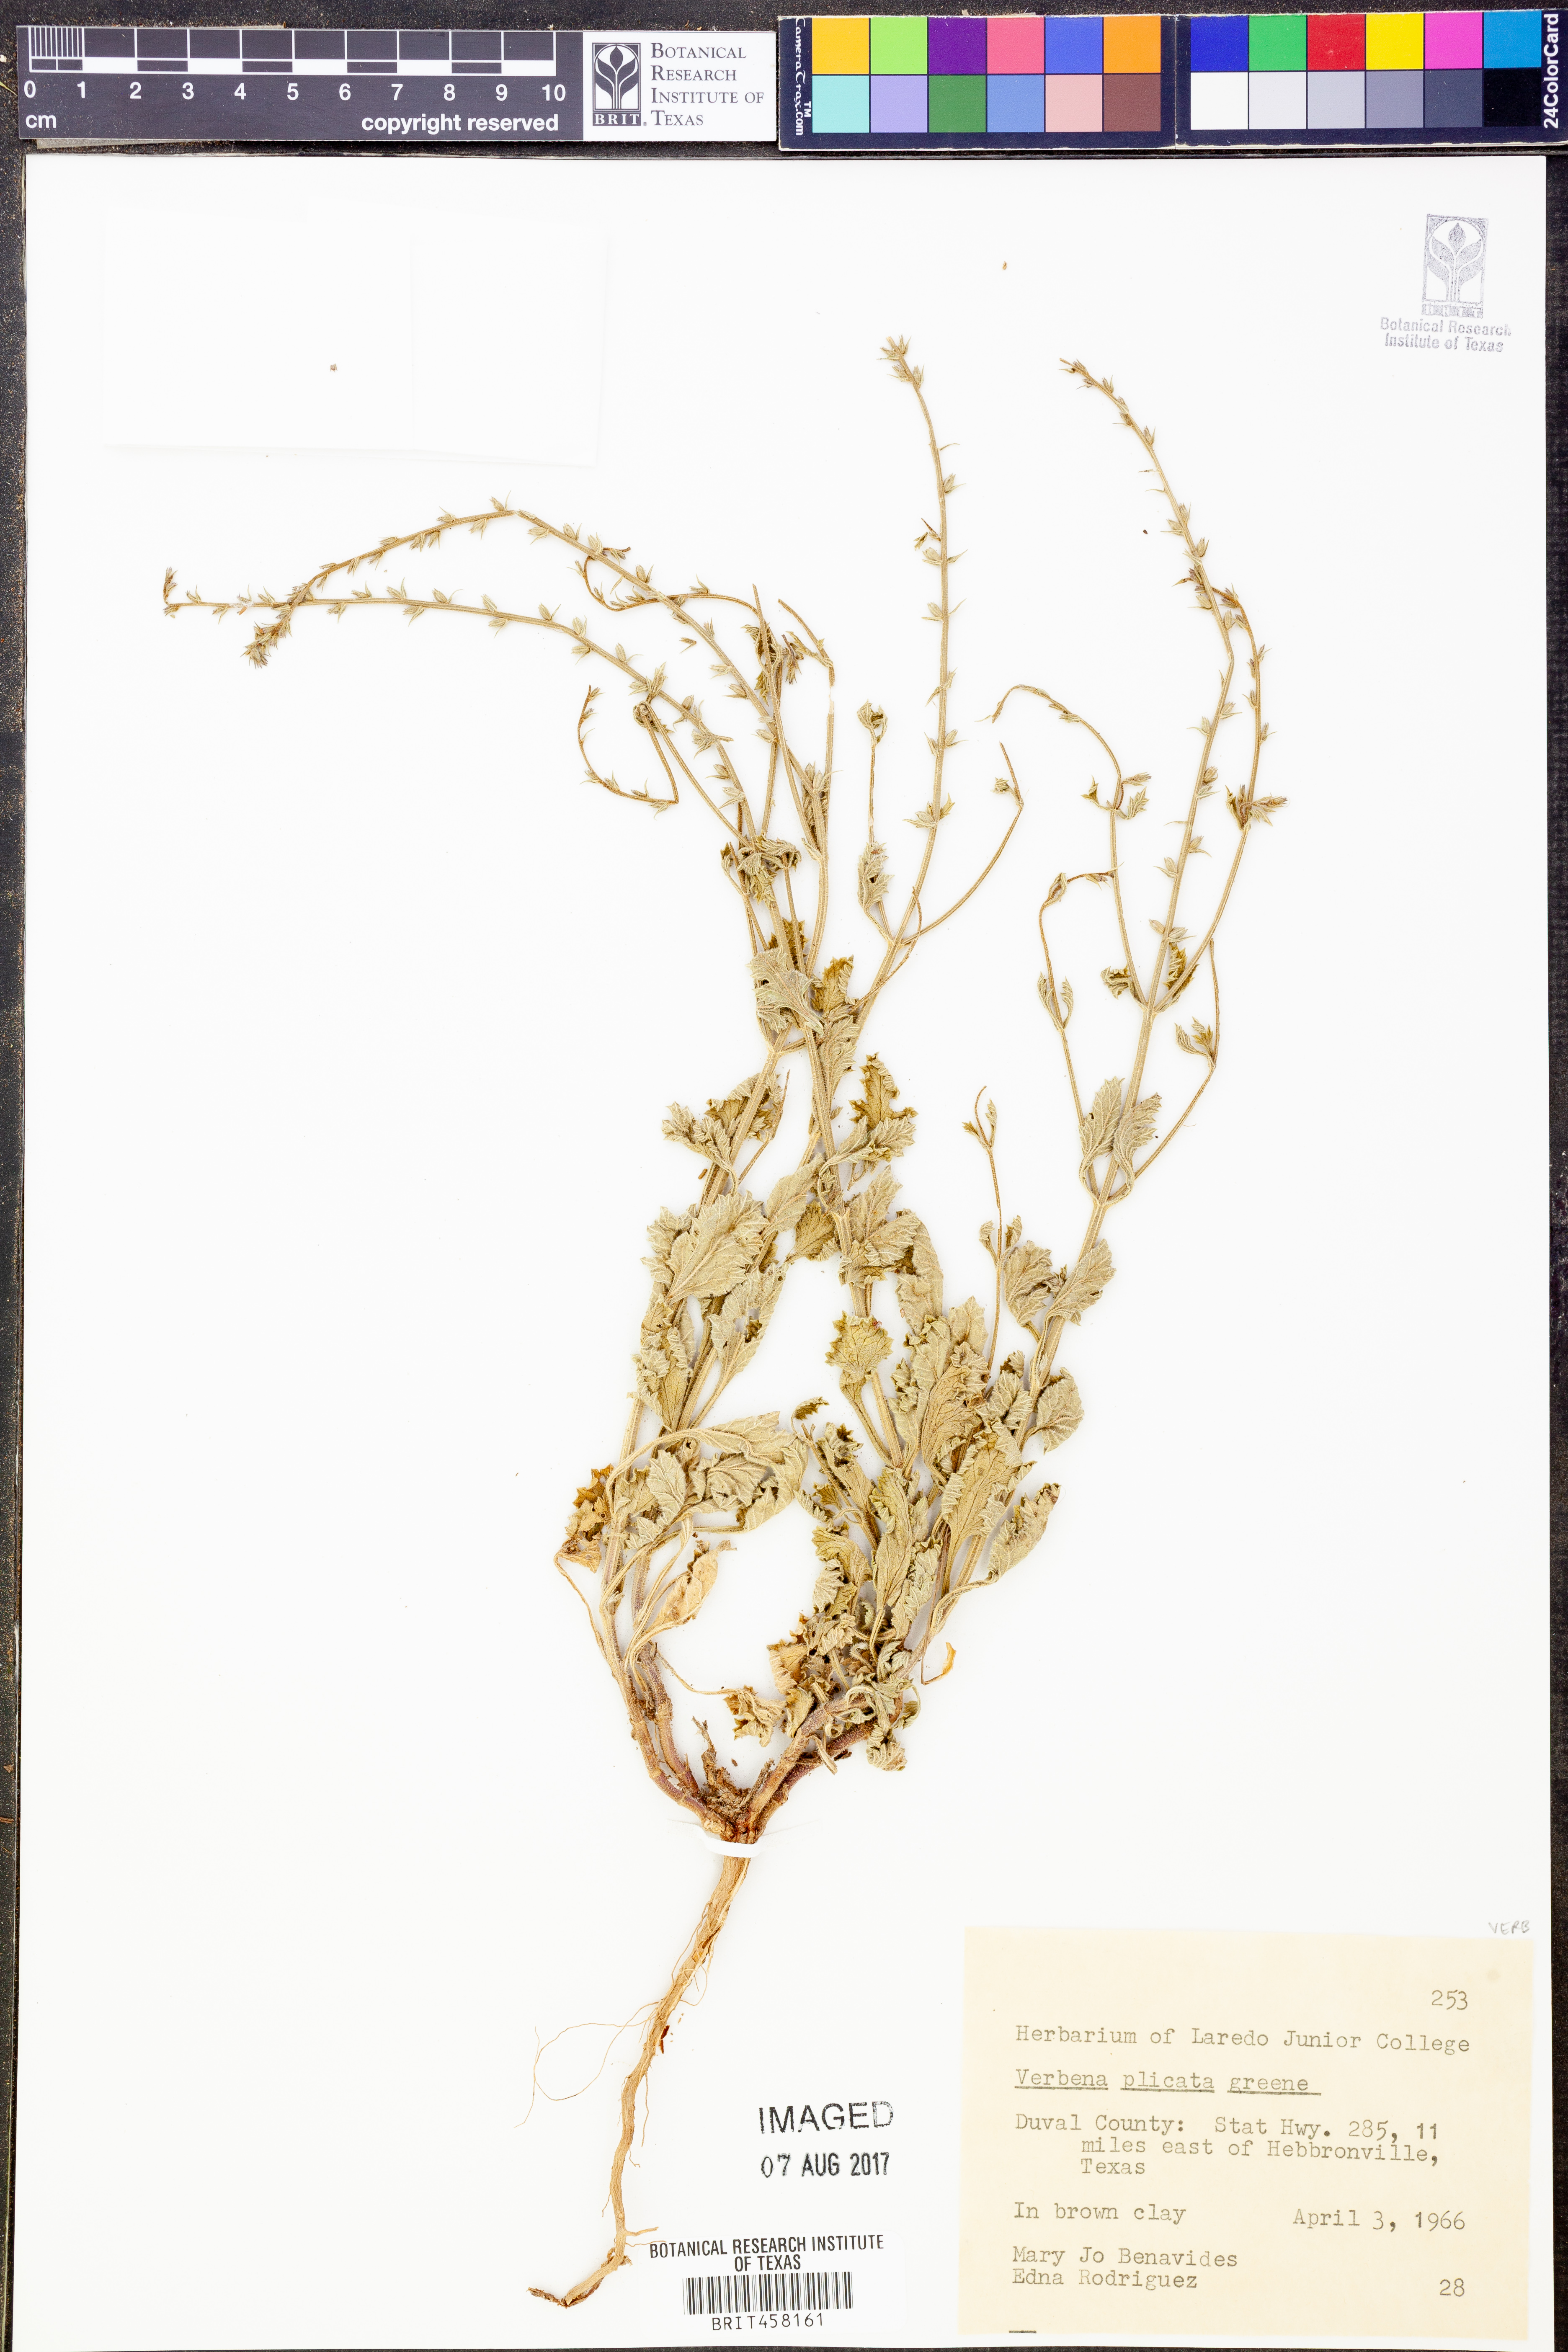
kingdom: Plantae
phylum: Tracheophyta
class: Magnoliopsida
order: Lamiales
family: Verbenaceae
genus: Verbena
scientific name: Verbena plicata
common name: Fan-leaf vervain
